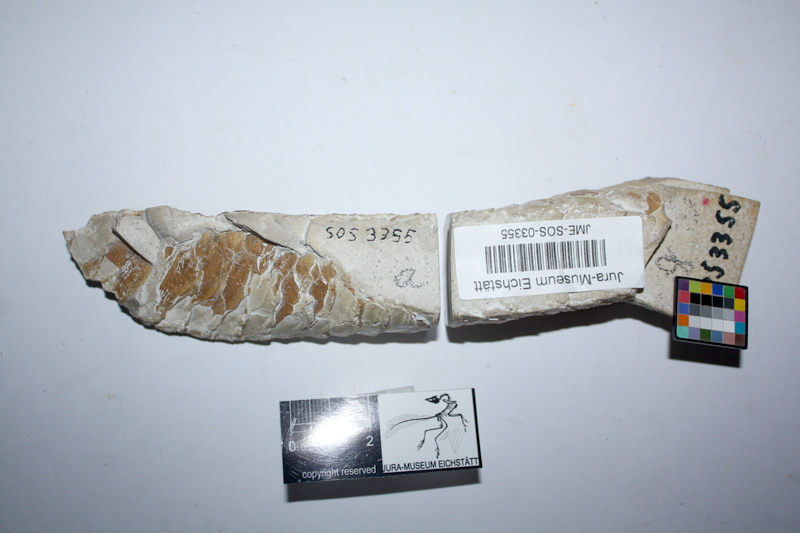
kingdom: Animalia
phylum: Chordata
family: Aspidorhynchidae
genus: Aspidorhynchus
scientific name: Aspidorhynchus acutirostris
